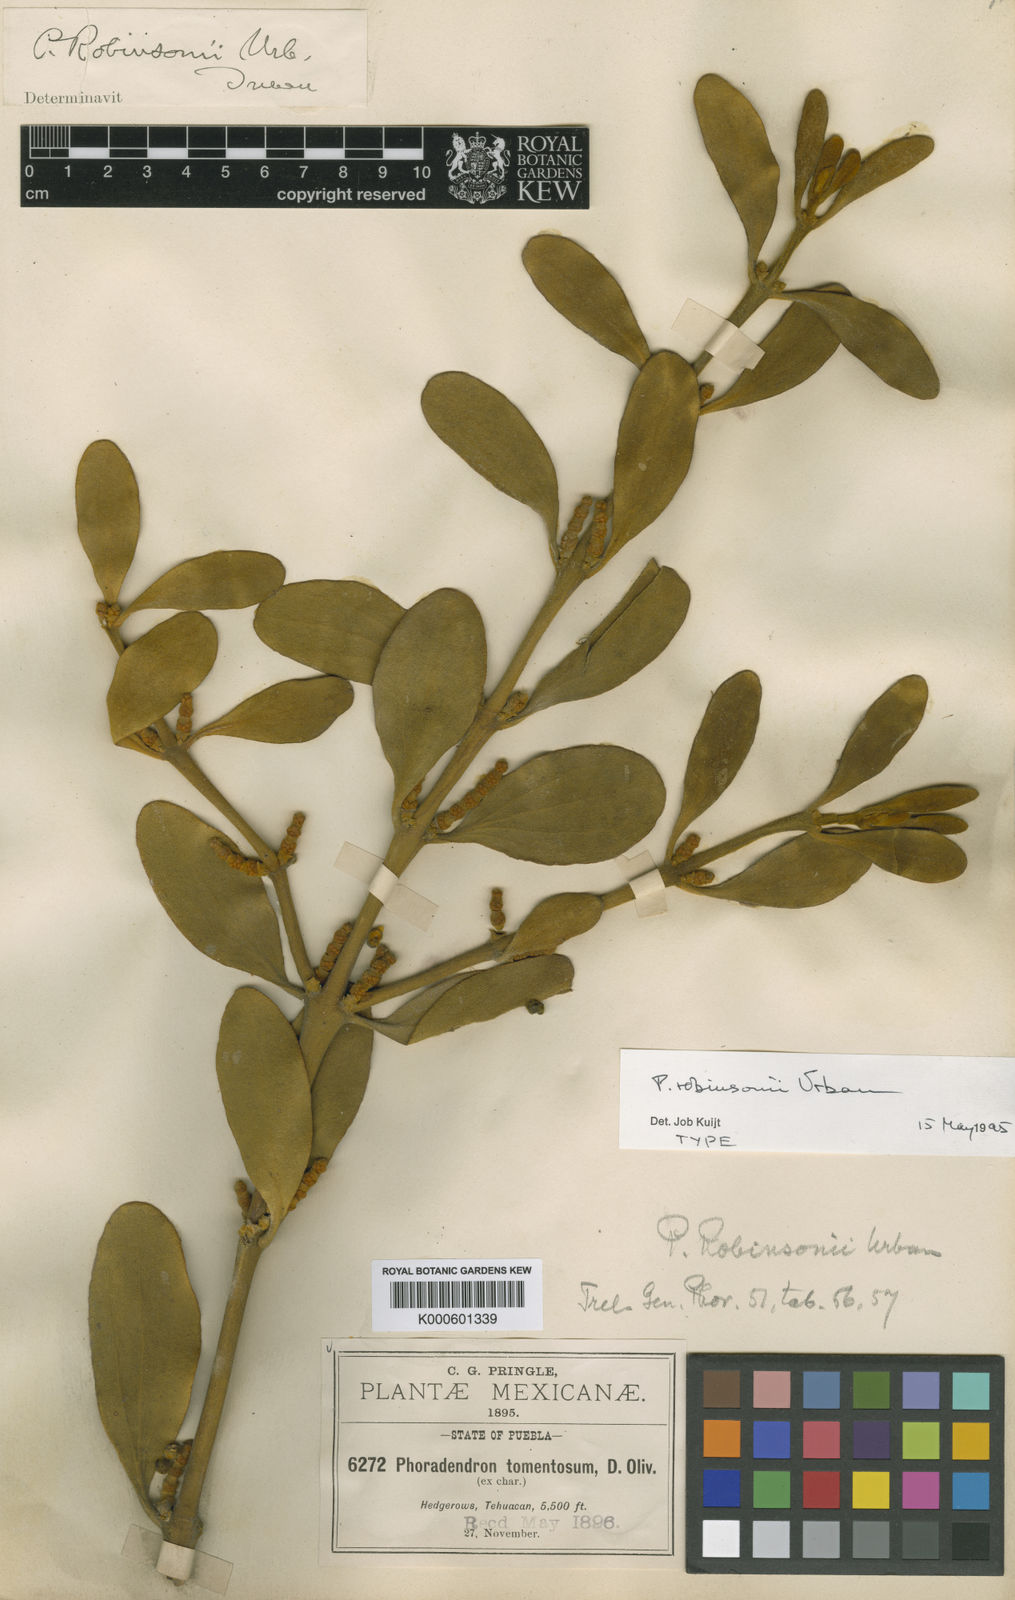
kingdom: Plantae
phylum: Tracheophyta
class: Magnoliopsida
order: Santalales
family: Viscaceae
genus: Phoradendron
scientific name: Phoradendron robinsonii
